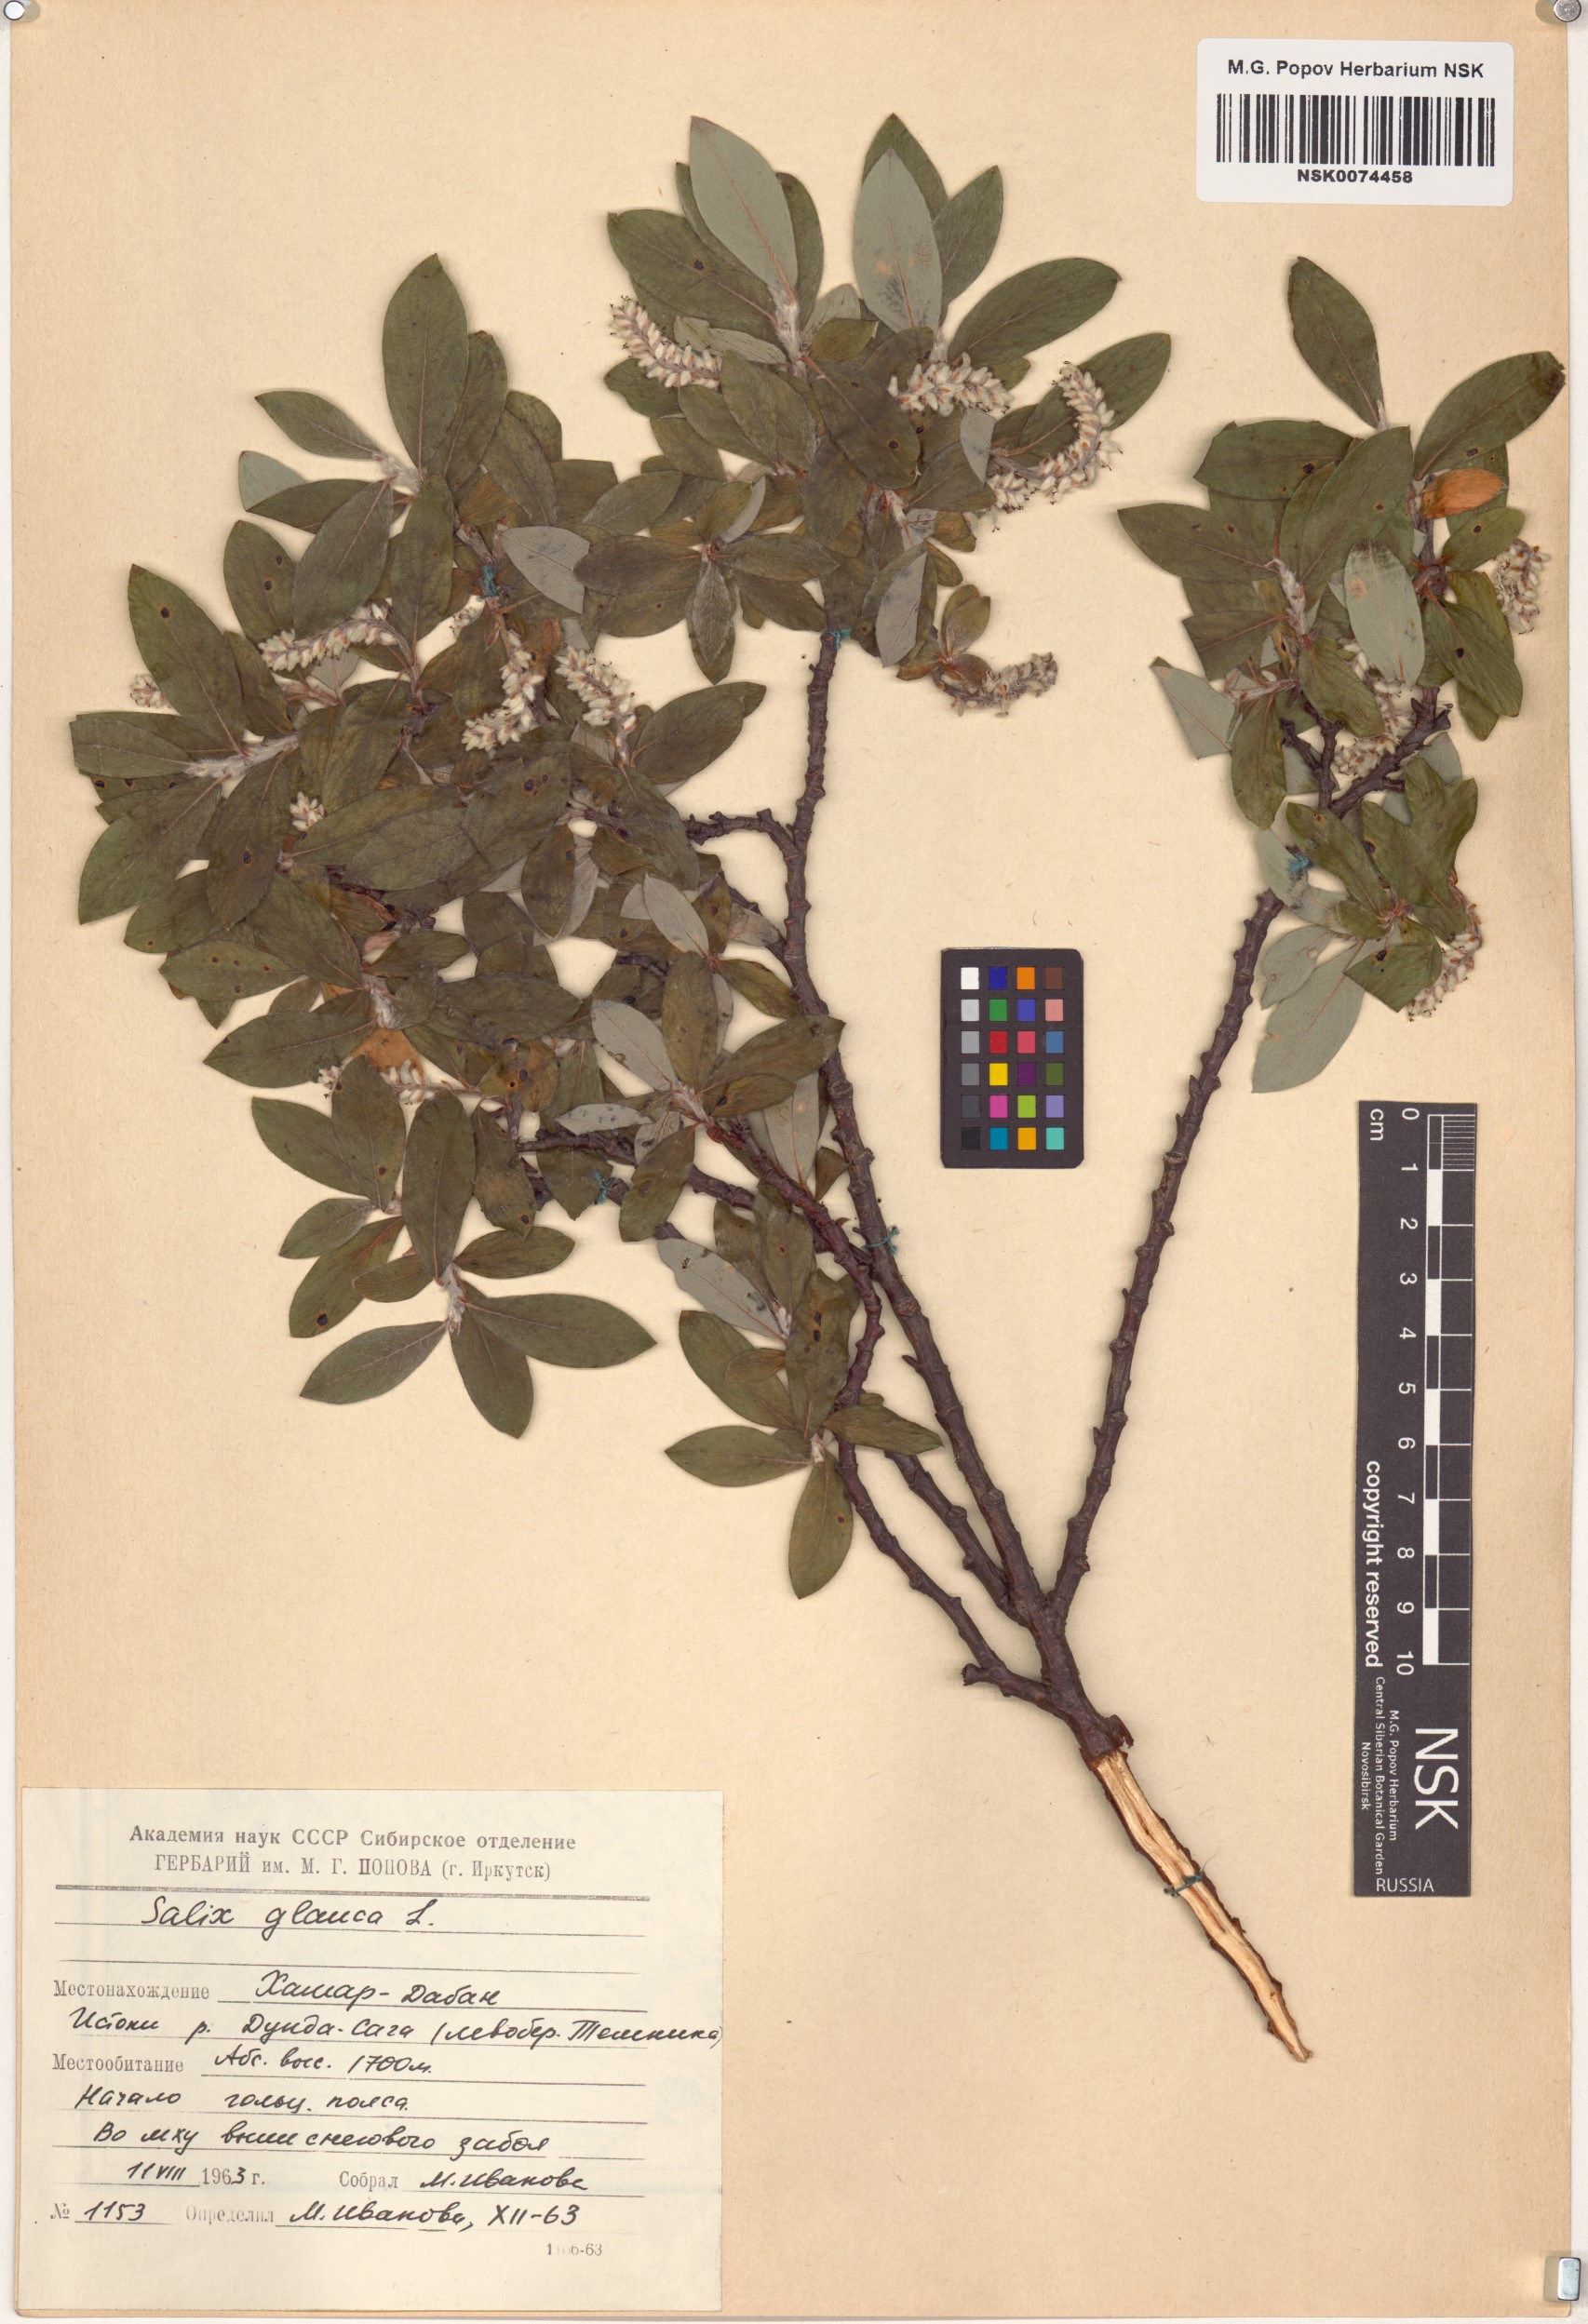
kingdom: Plantae
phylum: Tracheophyta
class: Magnoliopsida
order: Malpighiales
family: Salicaceae
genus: Salix
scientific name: Salix glauca
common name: Glaucous willow
